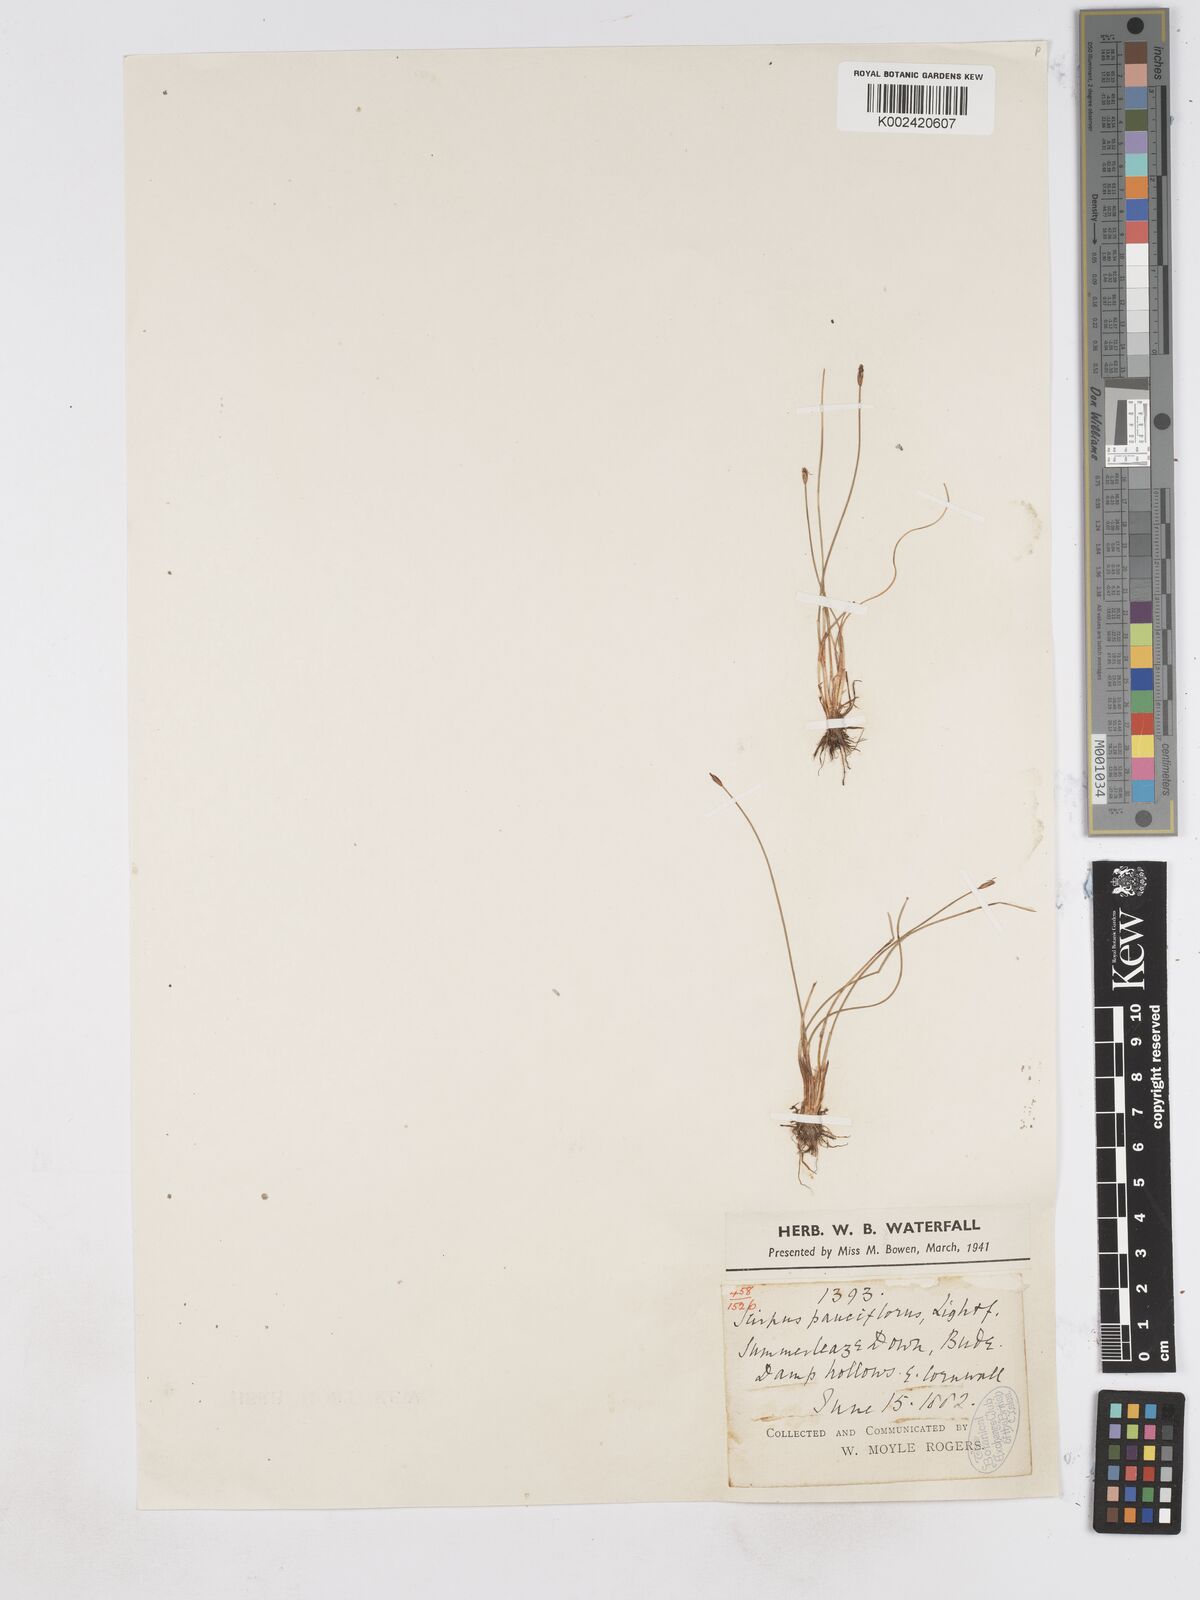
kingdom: Plantae
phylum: Tracheophyta
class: Liliopsida
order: Poales
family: Cyperaceae
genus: Eleocharis
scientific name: Eleocharis quinqueflora
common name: Few-flowered spike-rush
